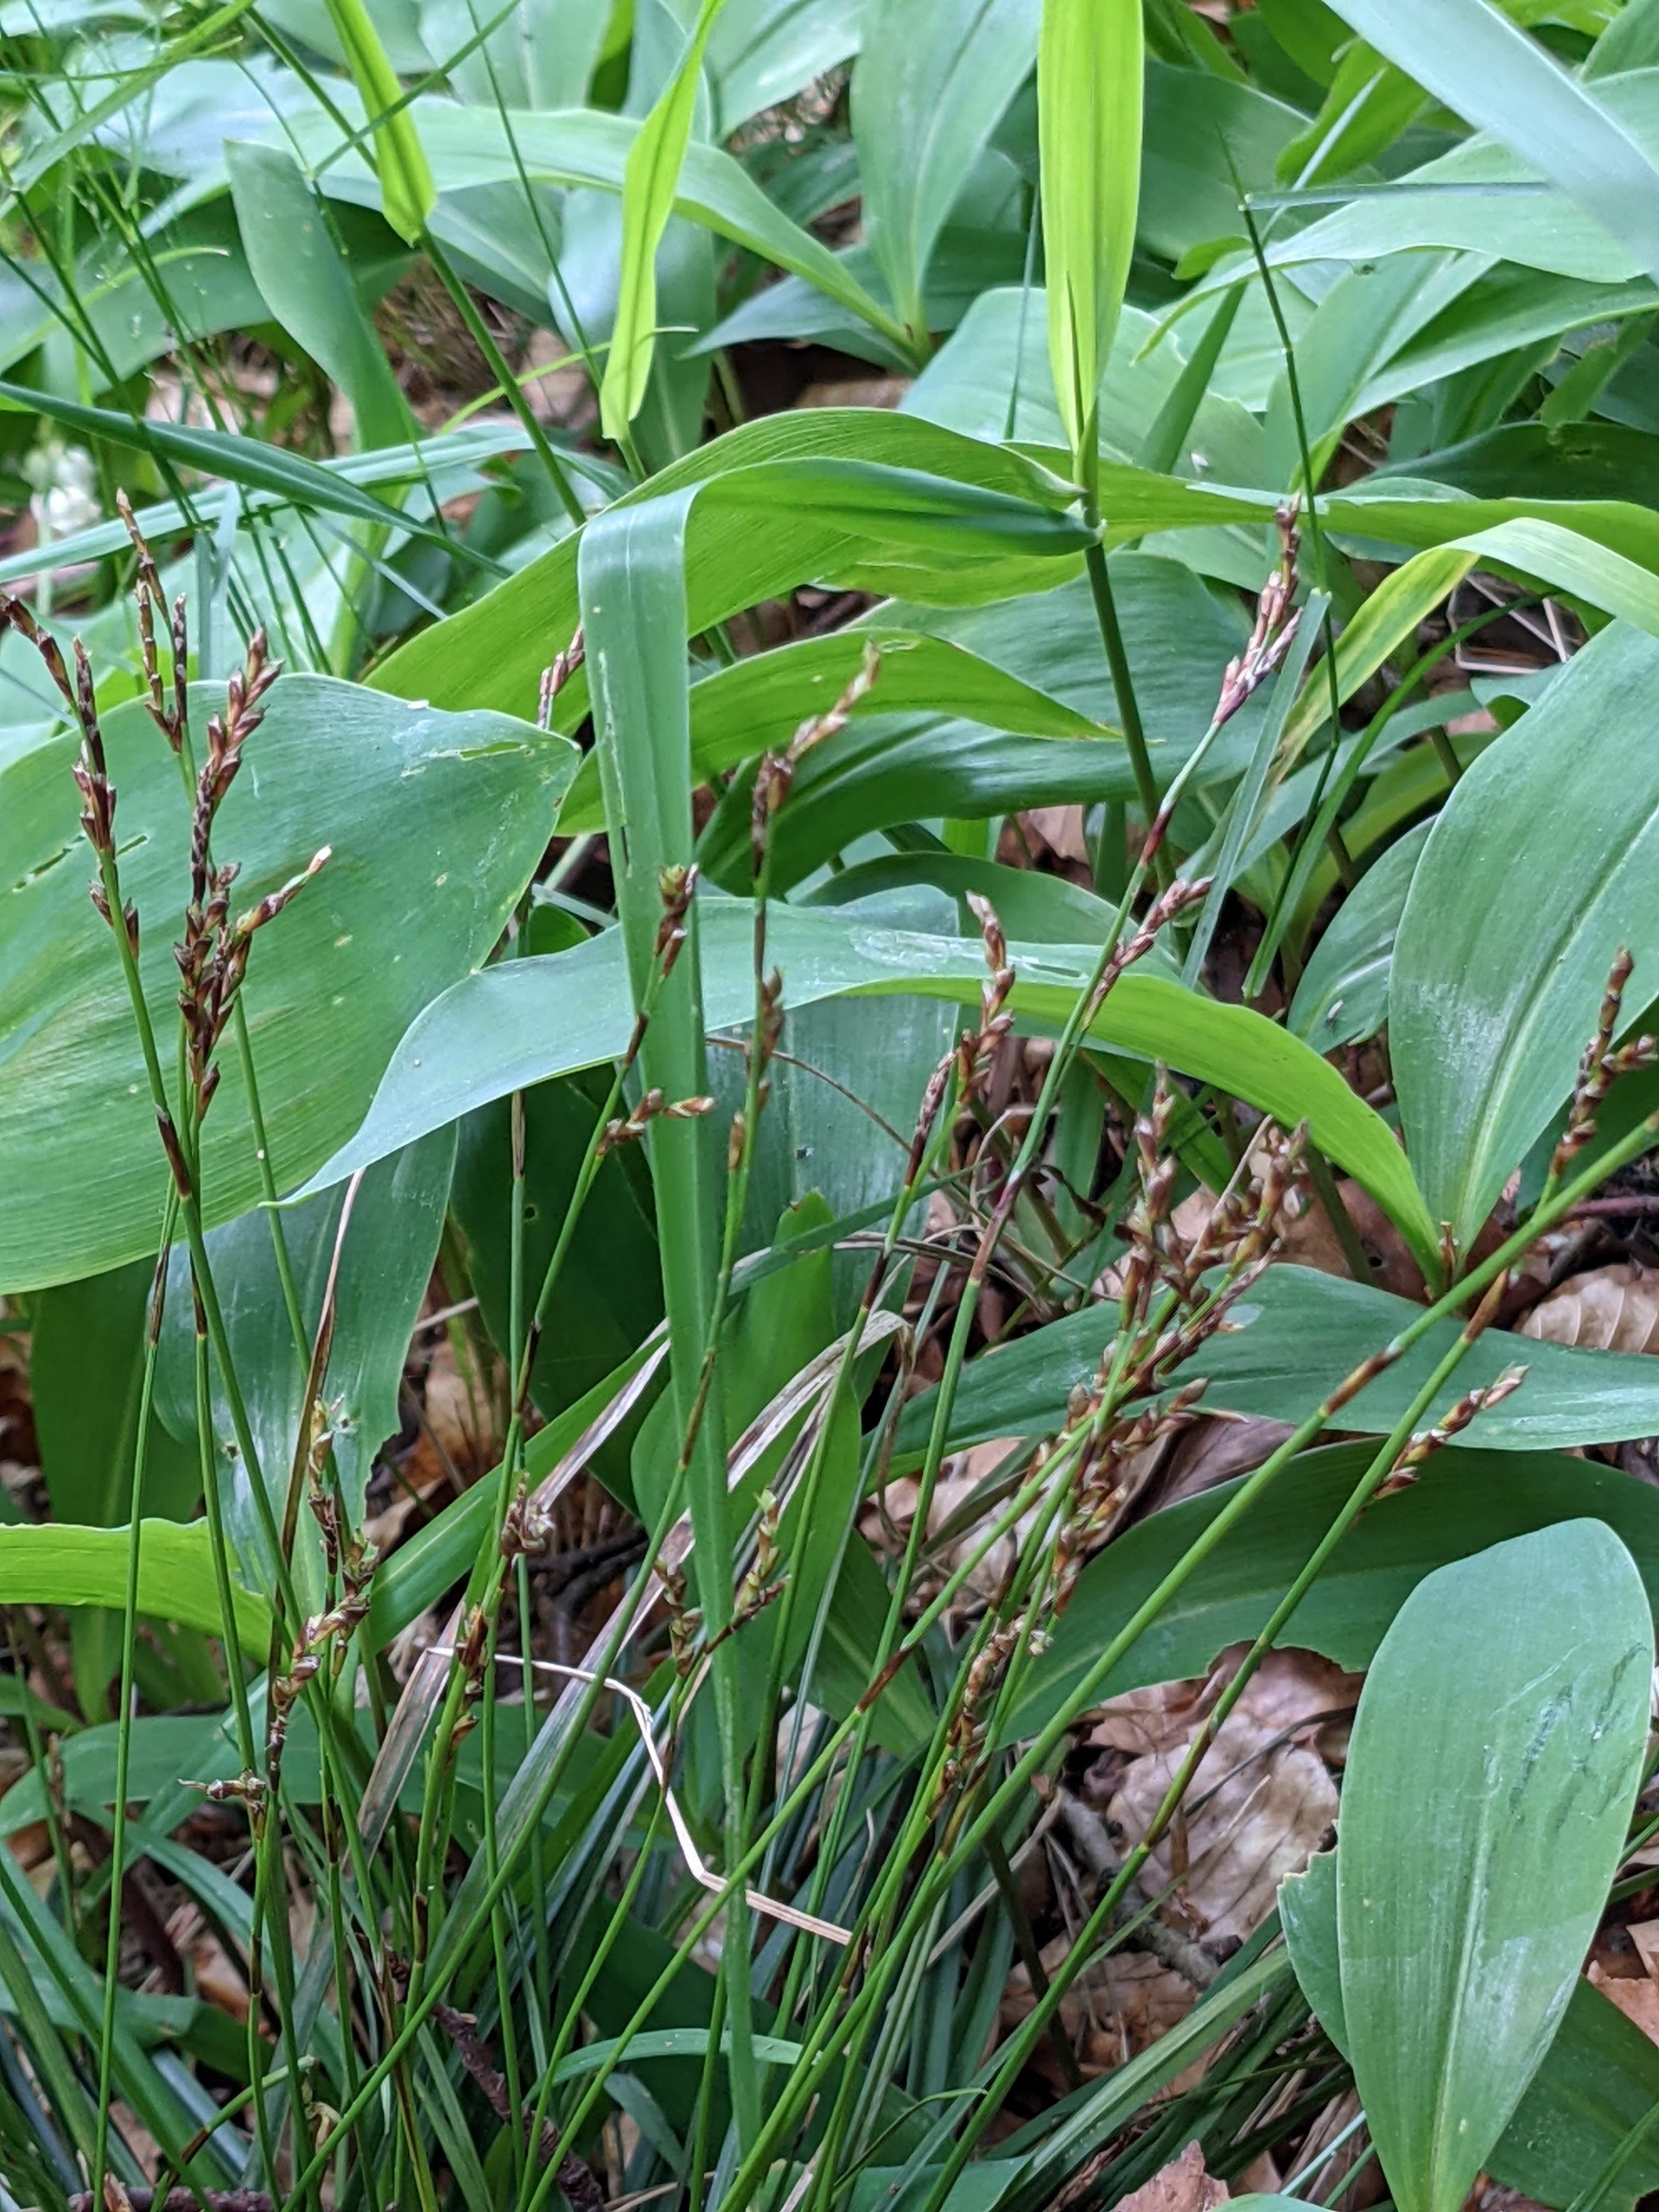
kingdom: Plantae
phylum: Tracheophyta
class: Liliopsida
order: Poales
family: Cyperaceae
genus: Carex
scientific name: Carex digitata
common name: Finger-star
